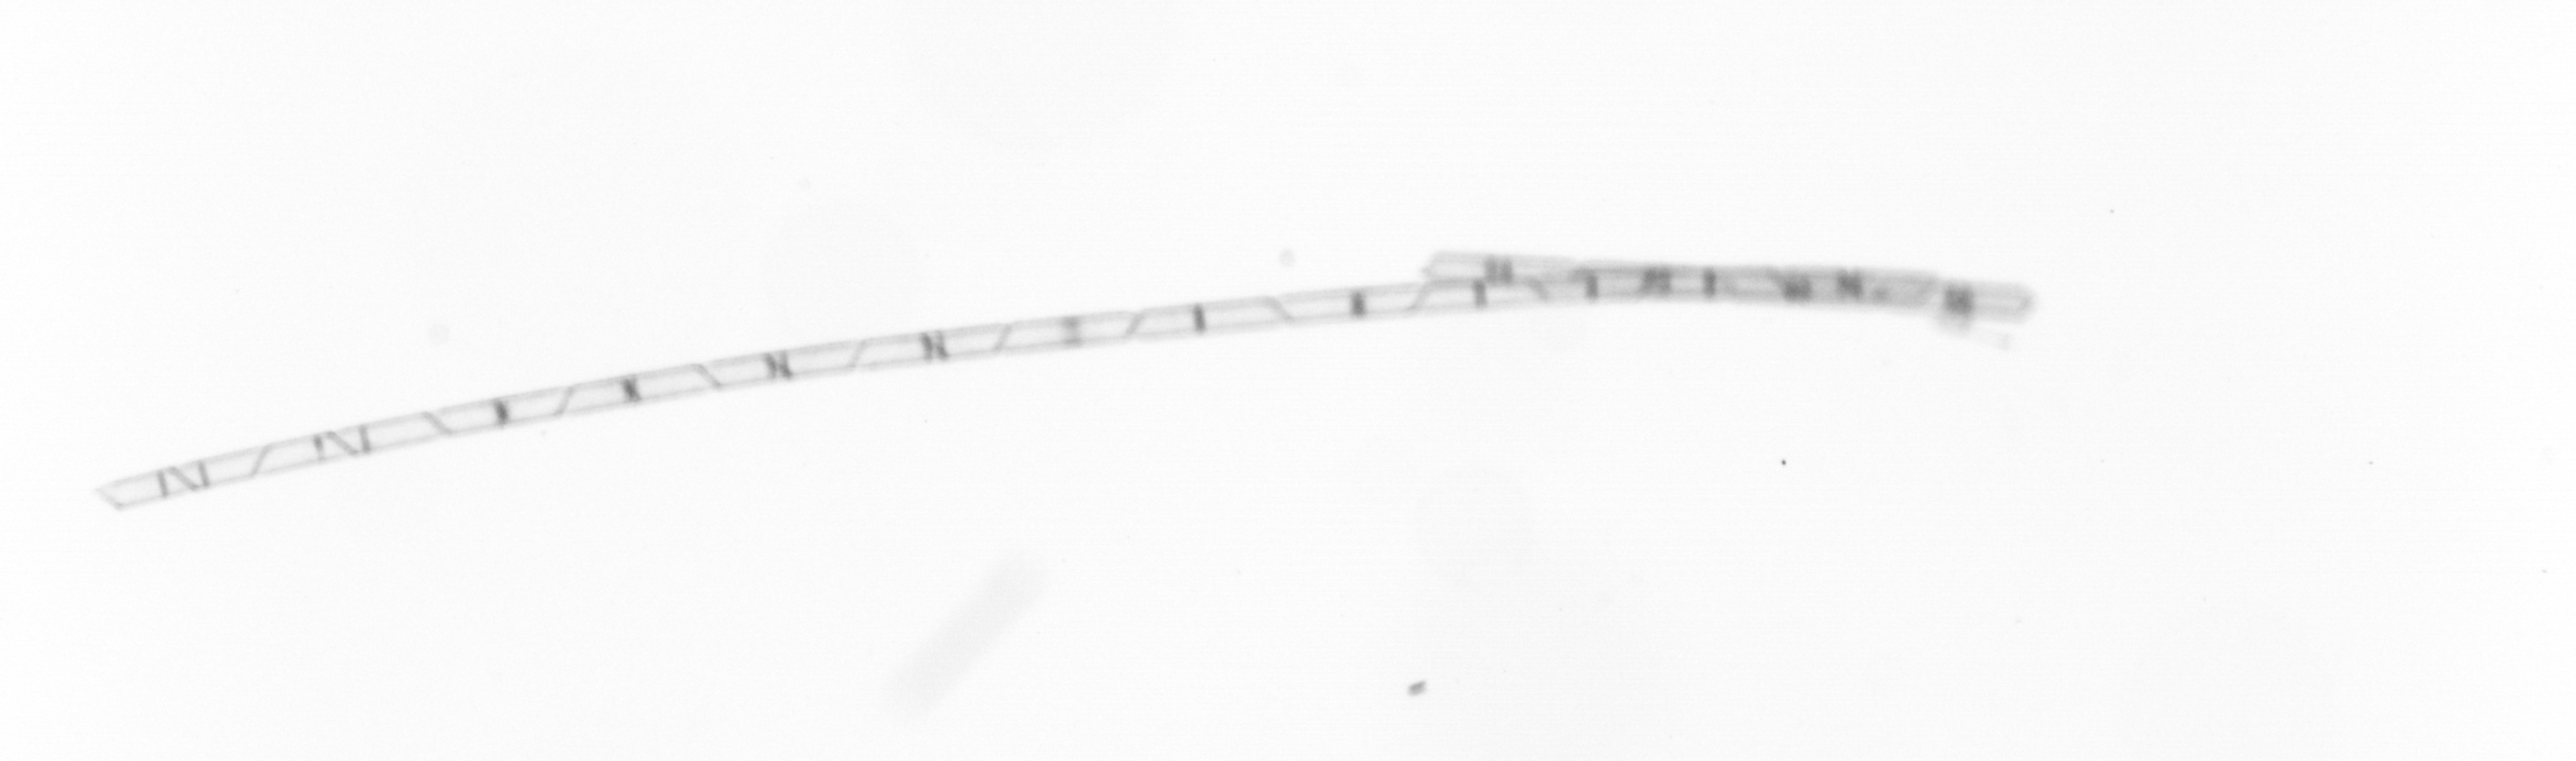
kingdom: Chromista
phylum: Ochrophyta
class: Bacillariophyceae
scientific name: Bacillariophyceae
